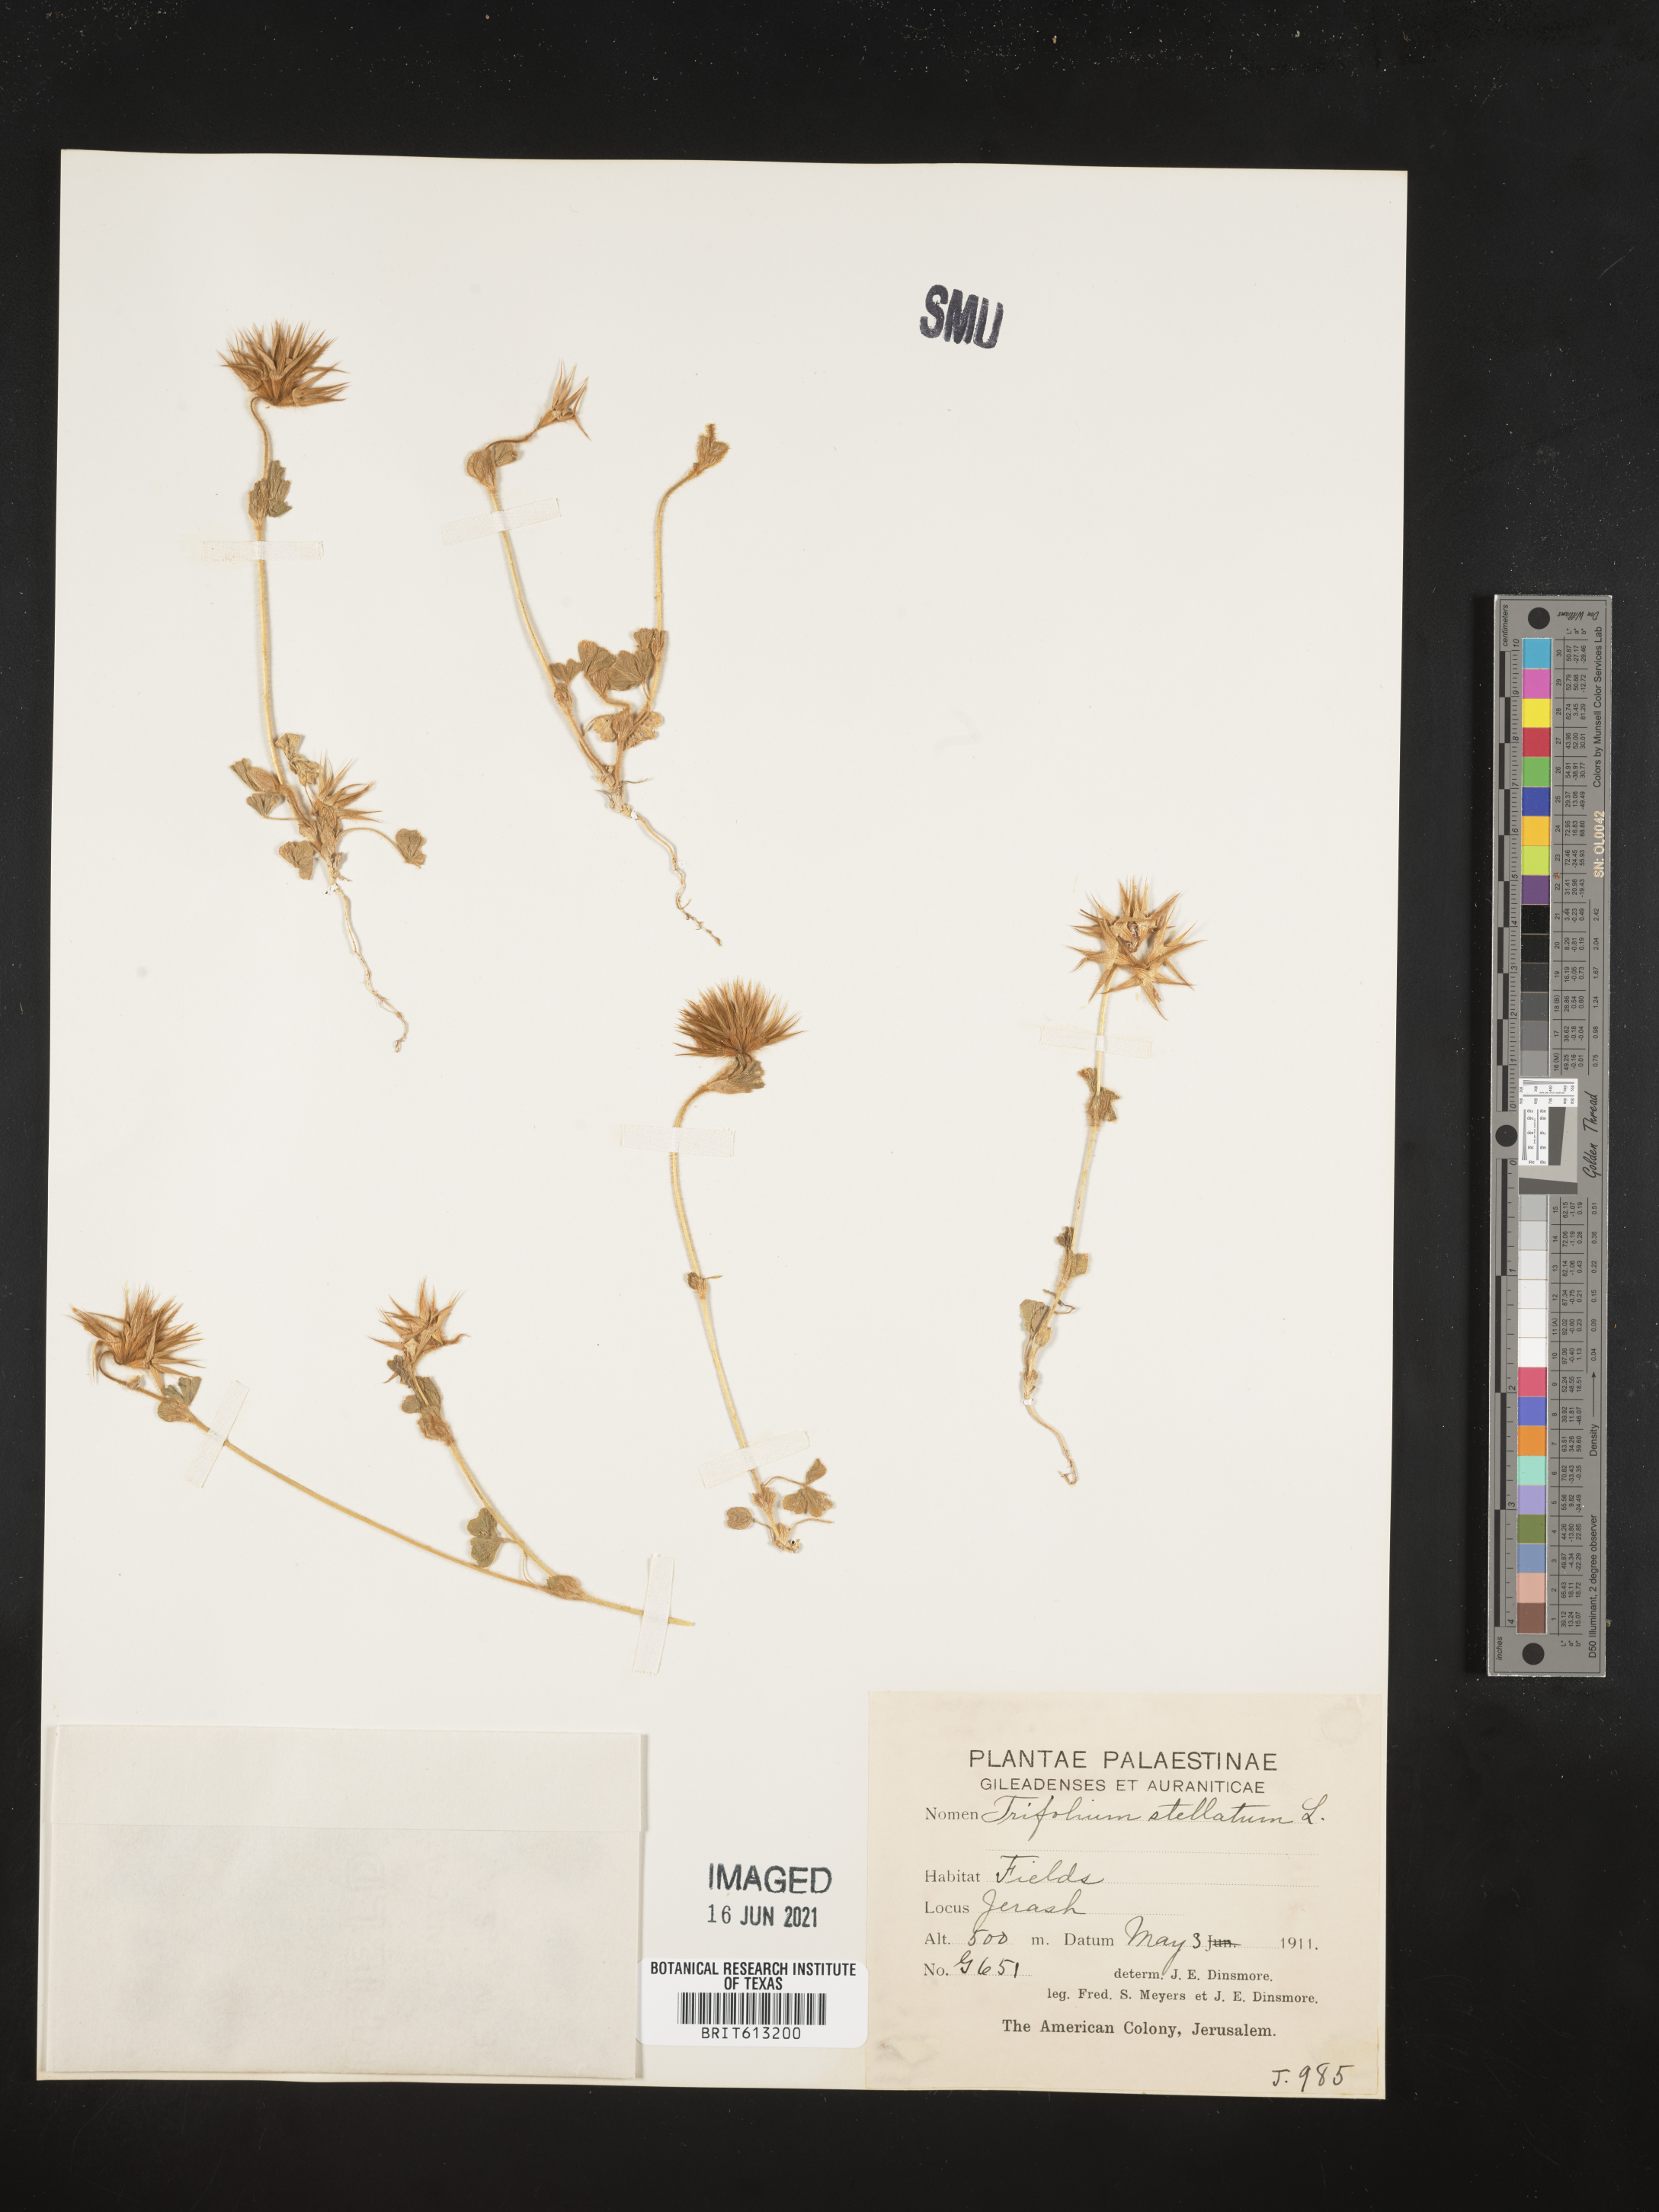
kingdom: Plantae
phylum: Tracheophyta
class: Magnoliopsida
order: Fabales
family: Fabaceae
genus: Trifolium
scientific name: Trifolium stellatum
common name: Starry clover
